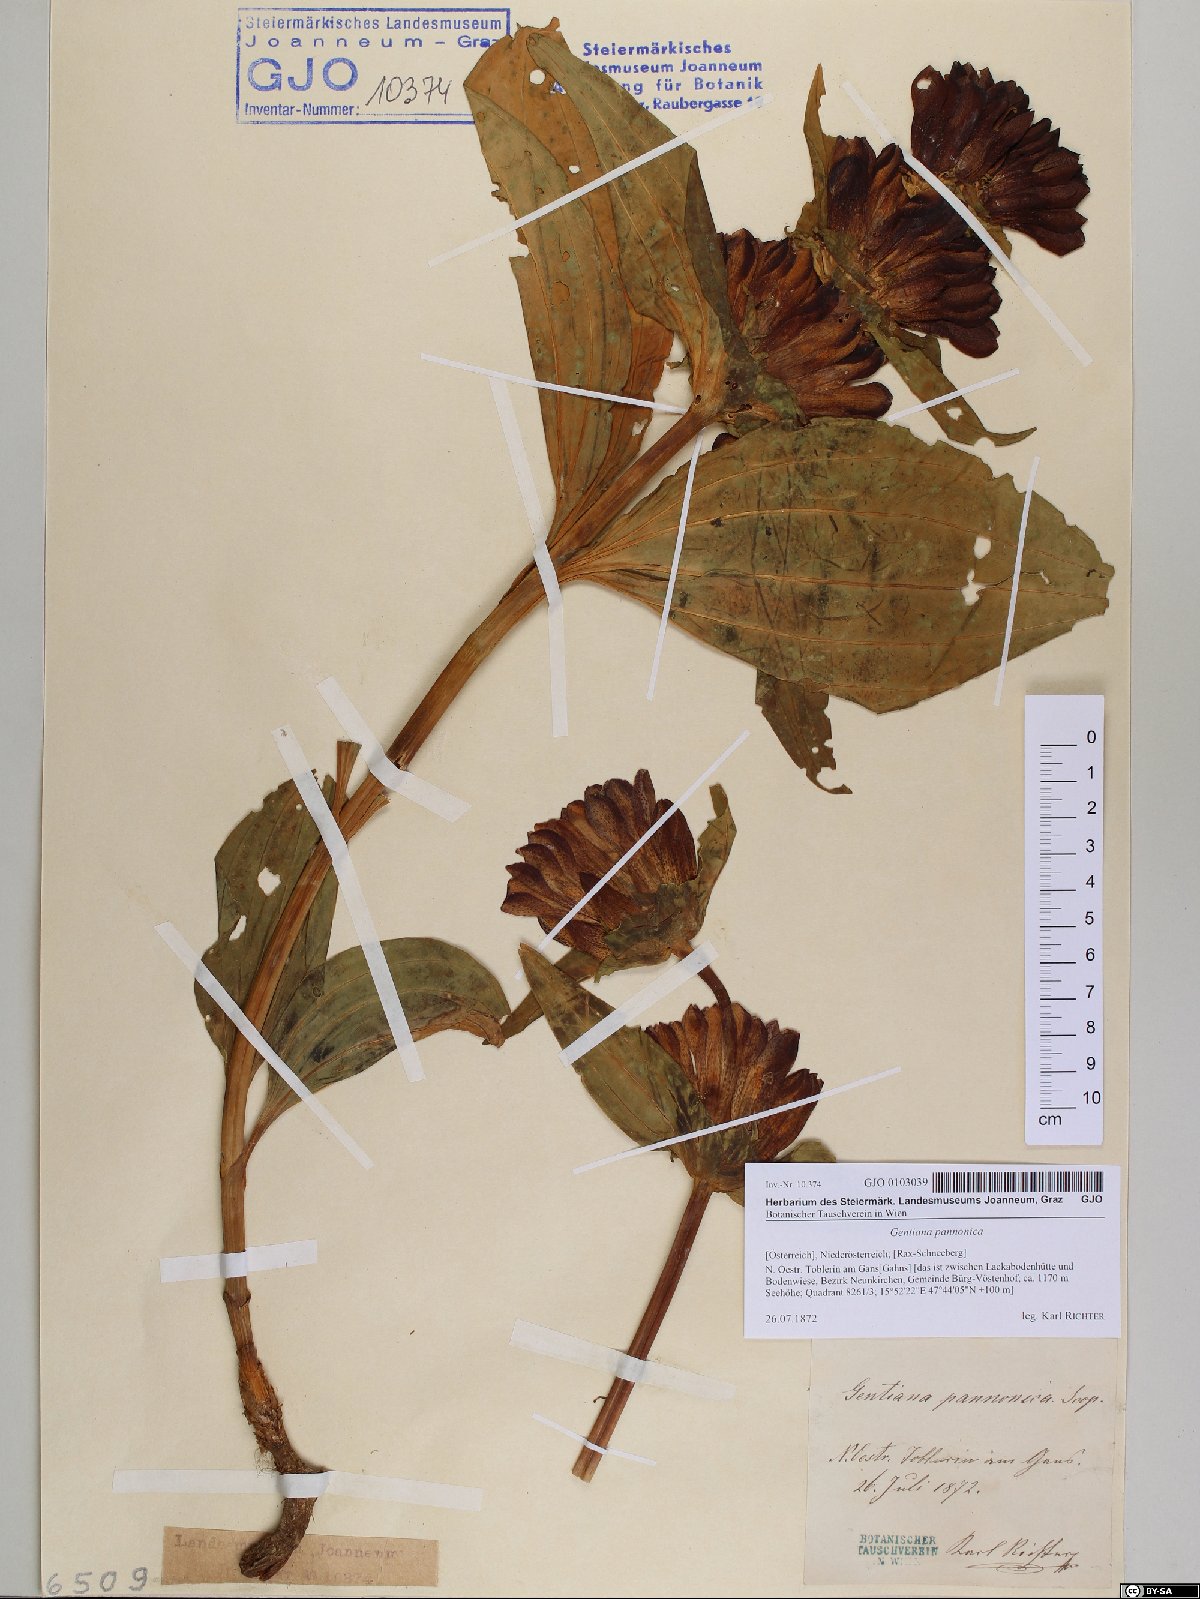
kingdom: Plantae
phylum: Tracheophyta
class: Magnoliopsida
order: Gentianales
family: Gentianaceae
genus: Gentiana
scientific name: Gentiana pannonica
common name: Hungarian gentian
